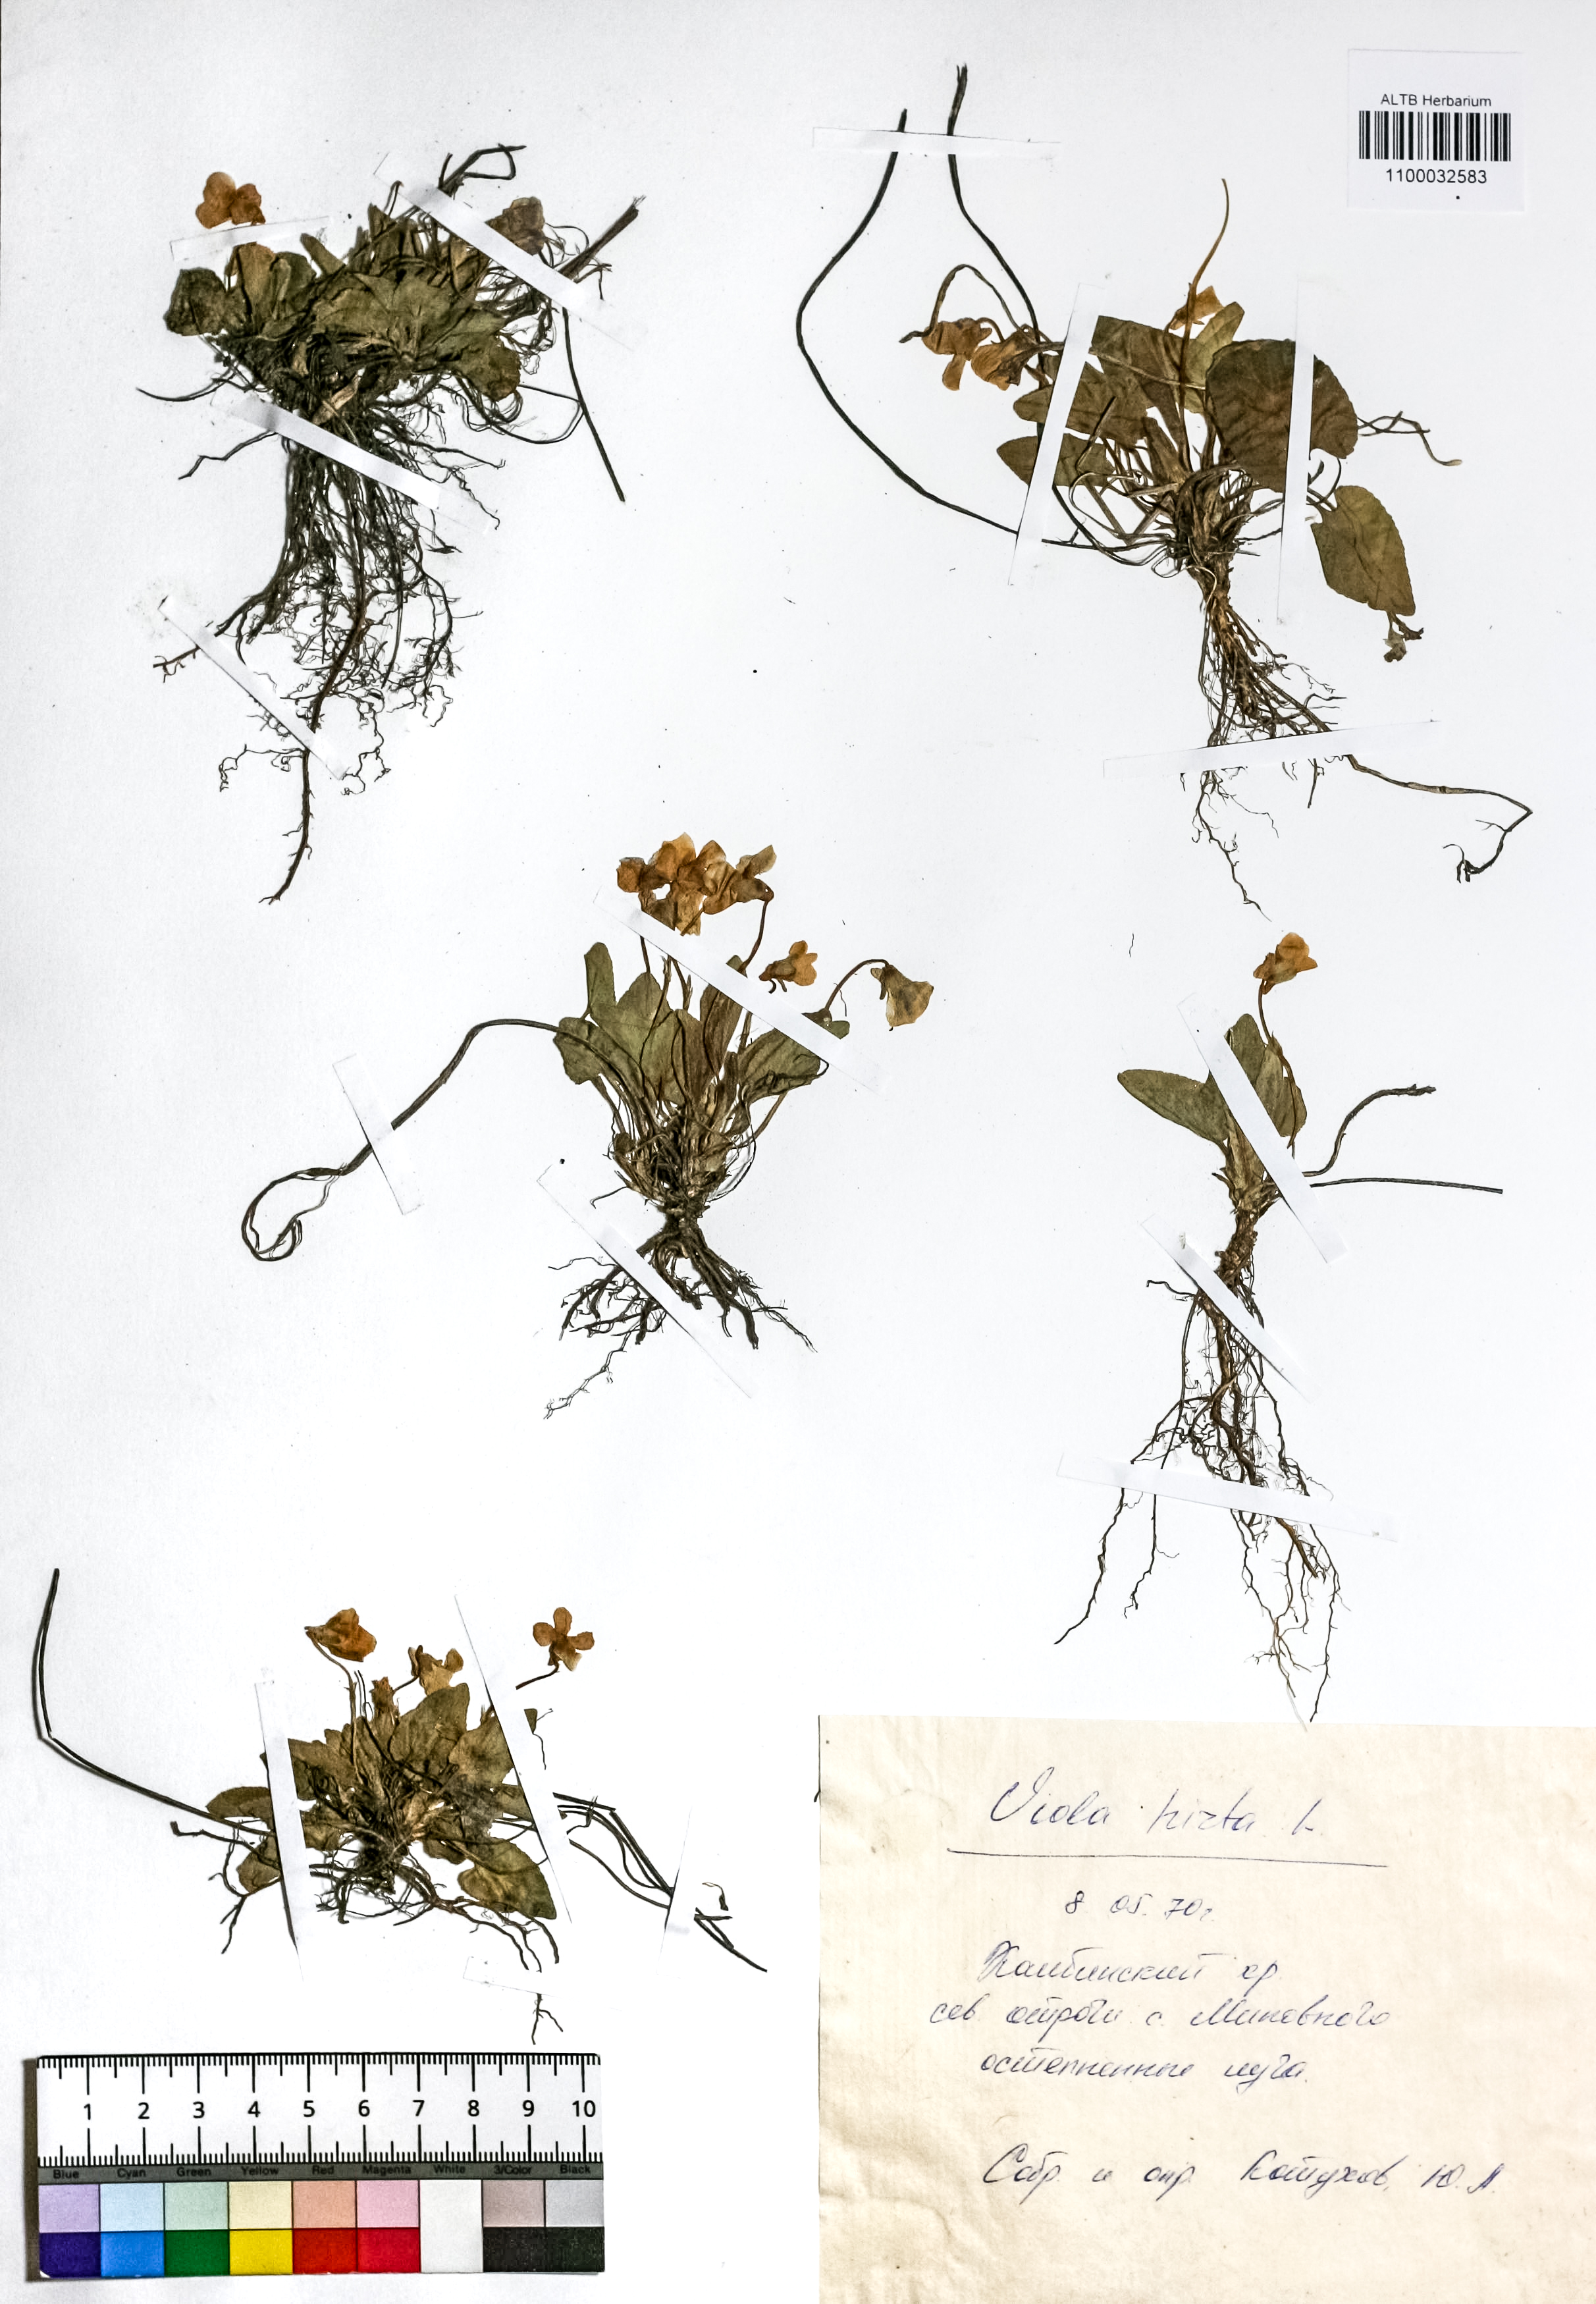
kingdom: Plantae
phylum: Tracheophyta
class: Magnoliopsida
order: Malpighiales
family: Violaceae
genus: Viola
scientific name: Viola hirta
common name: Hairy violet
